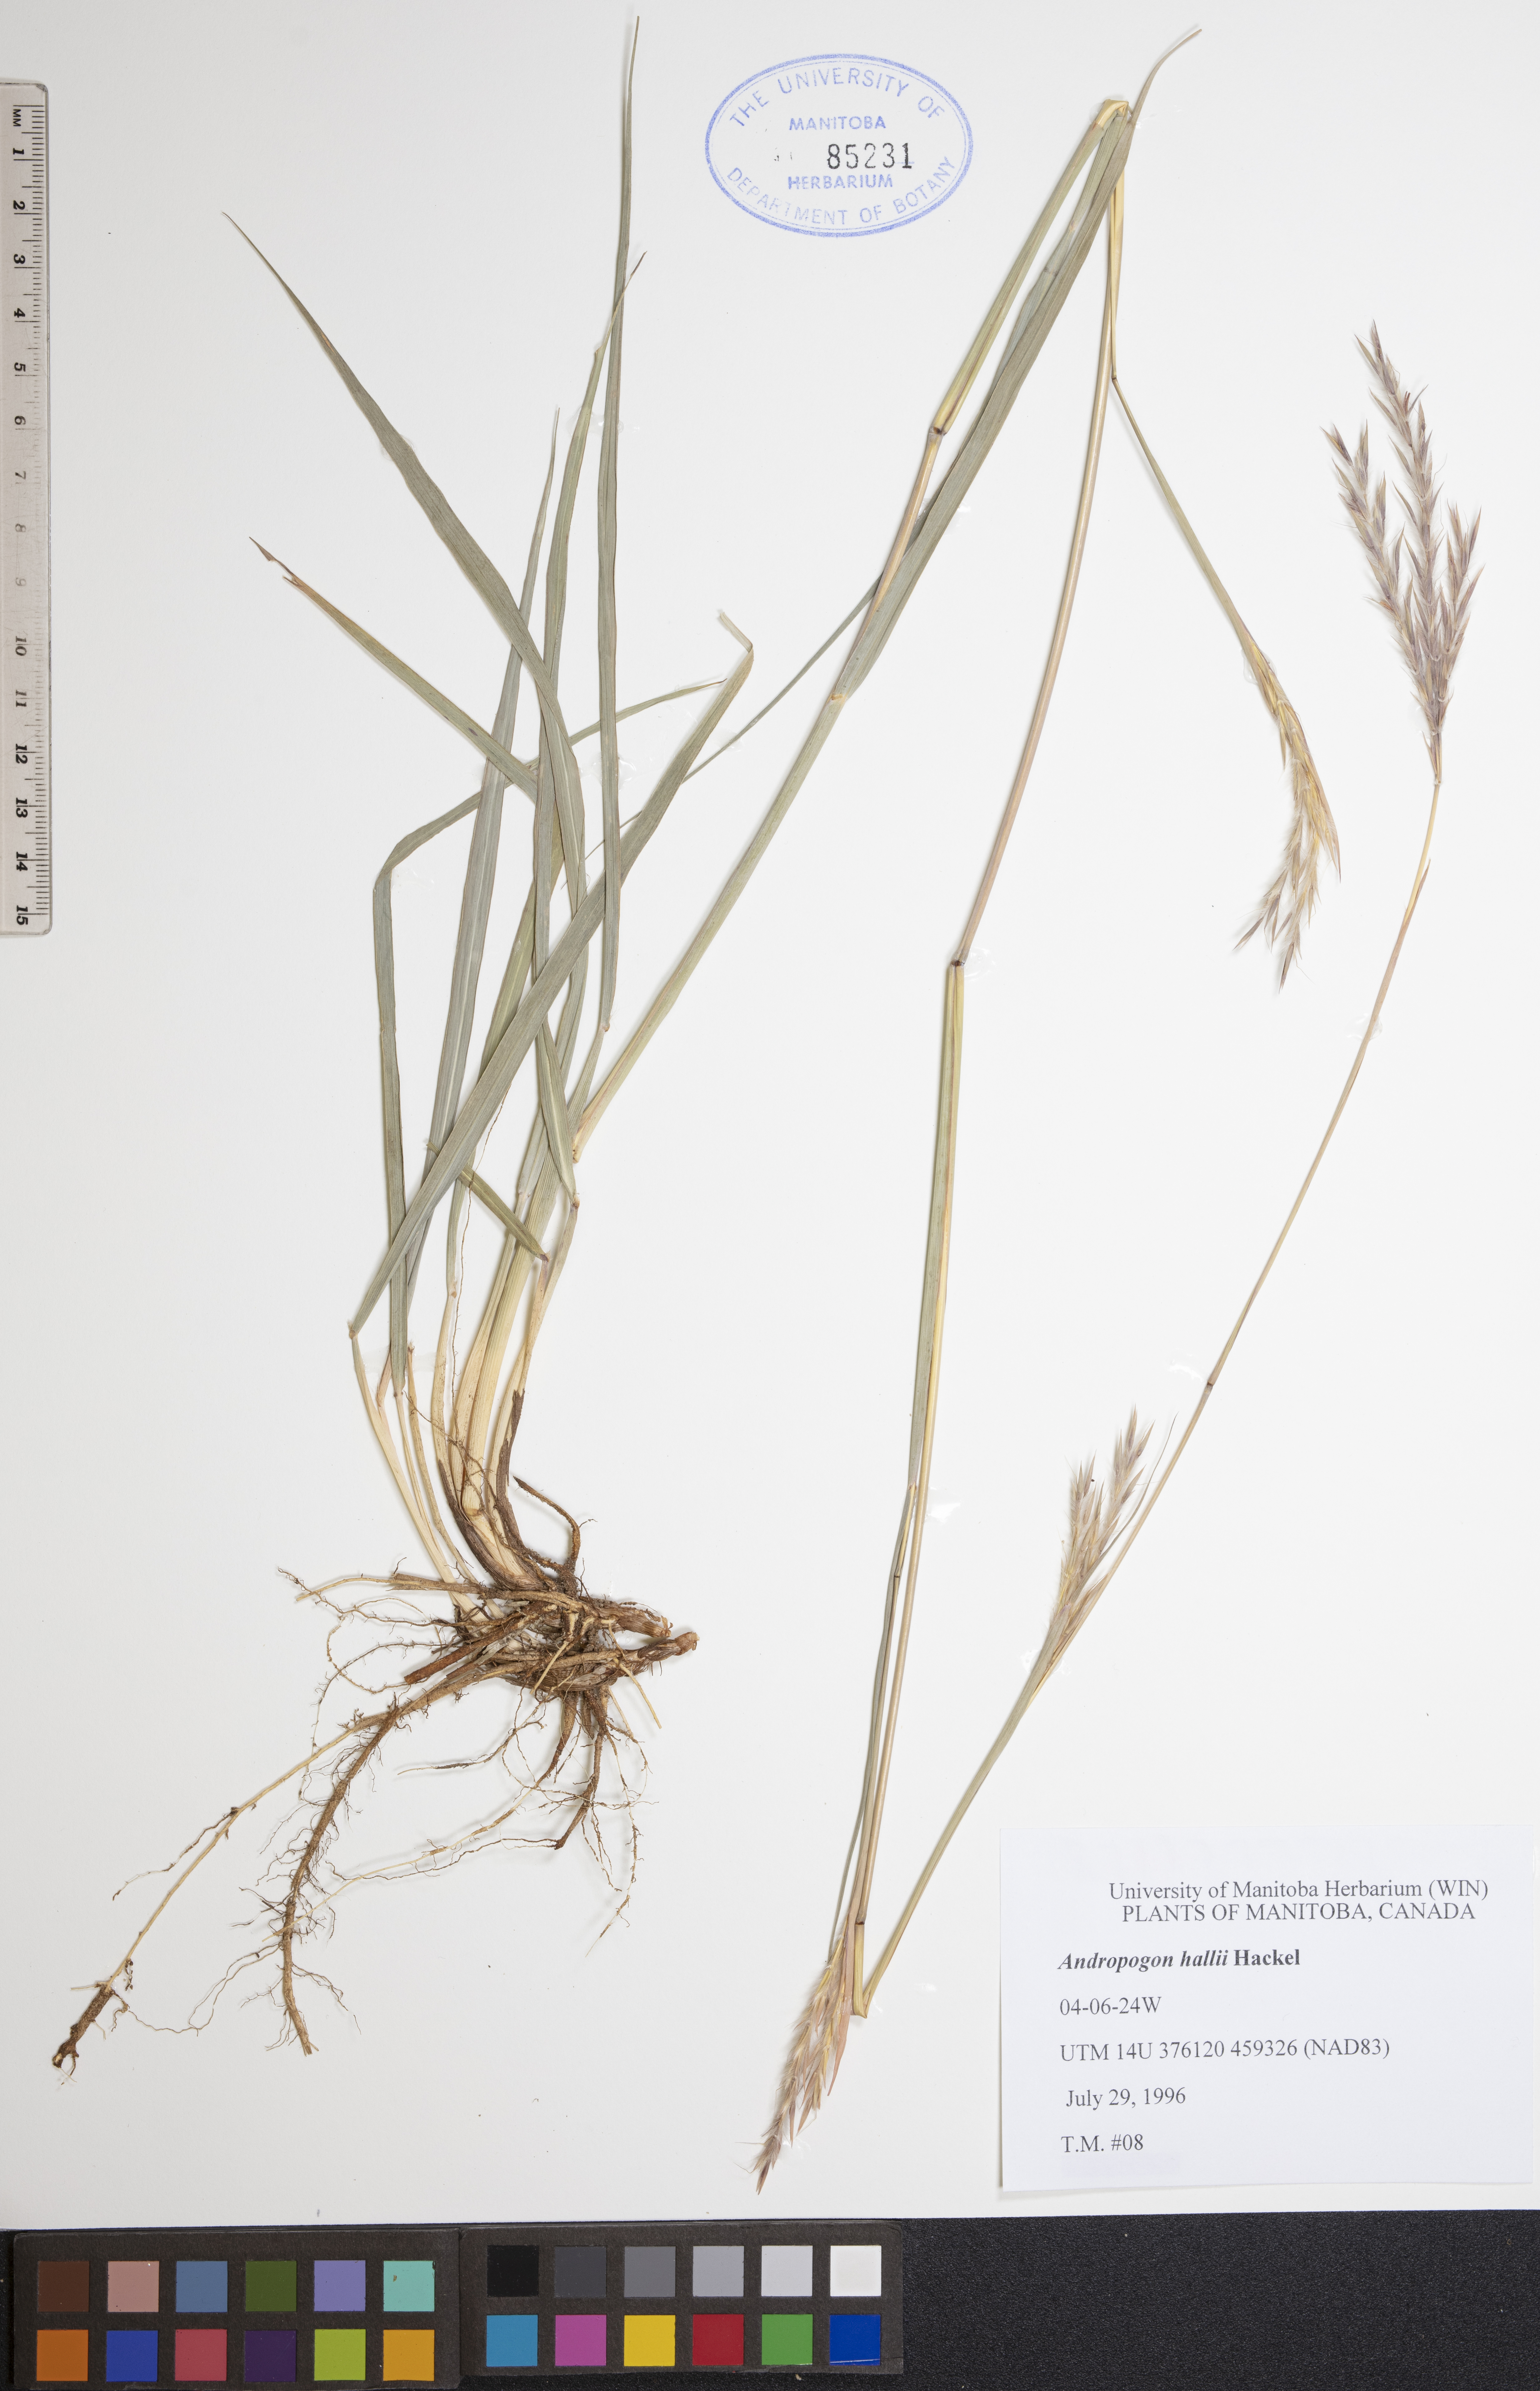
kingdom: Plantae
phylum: Tracheophyta
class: Liliopsida
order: Poales
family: Poaceae
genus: Andropogon
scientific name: Andropogon hallii
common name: Sand bluestem
